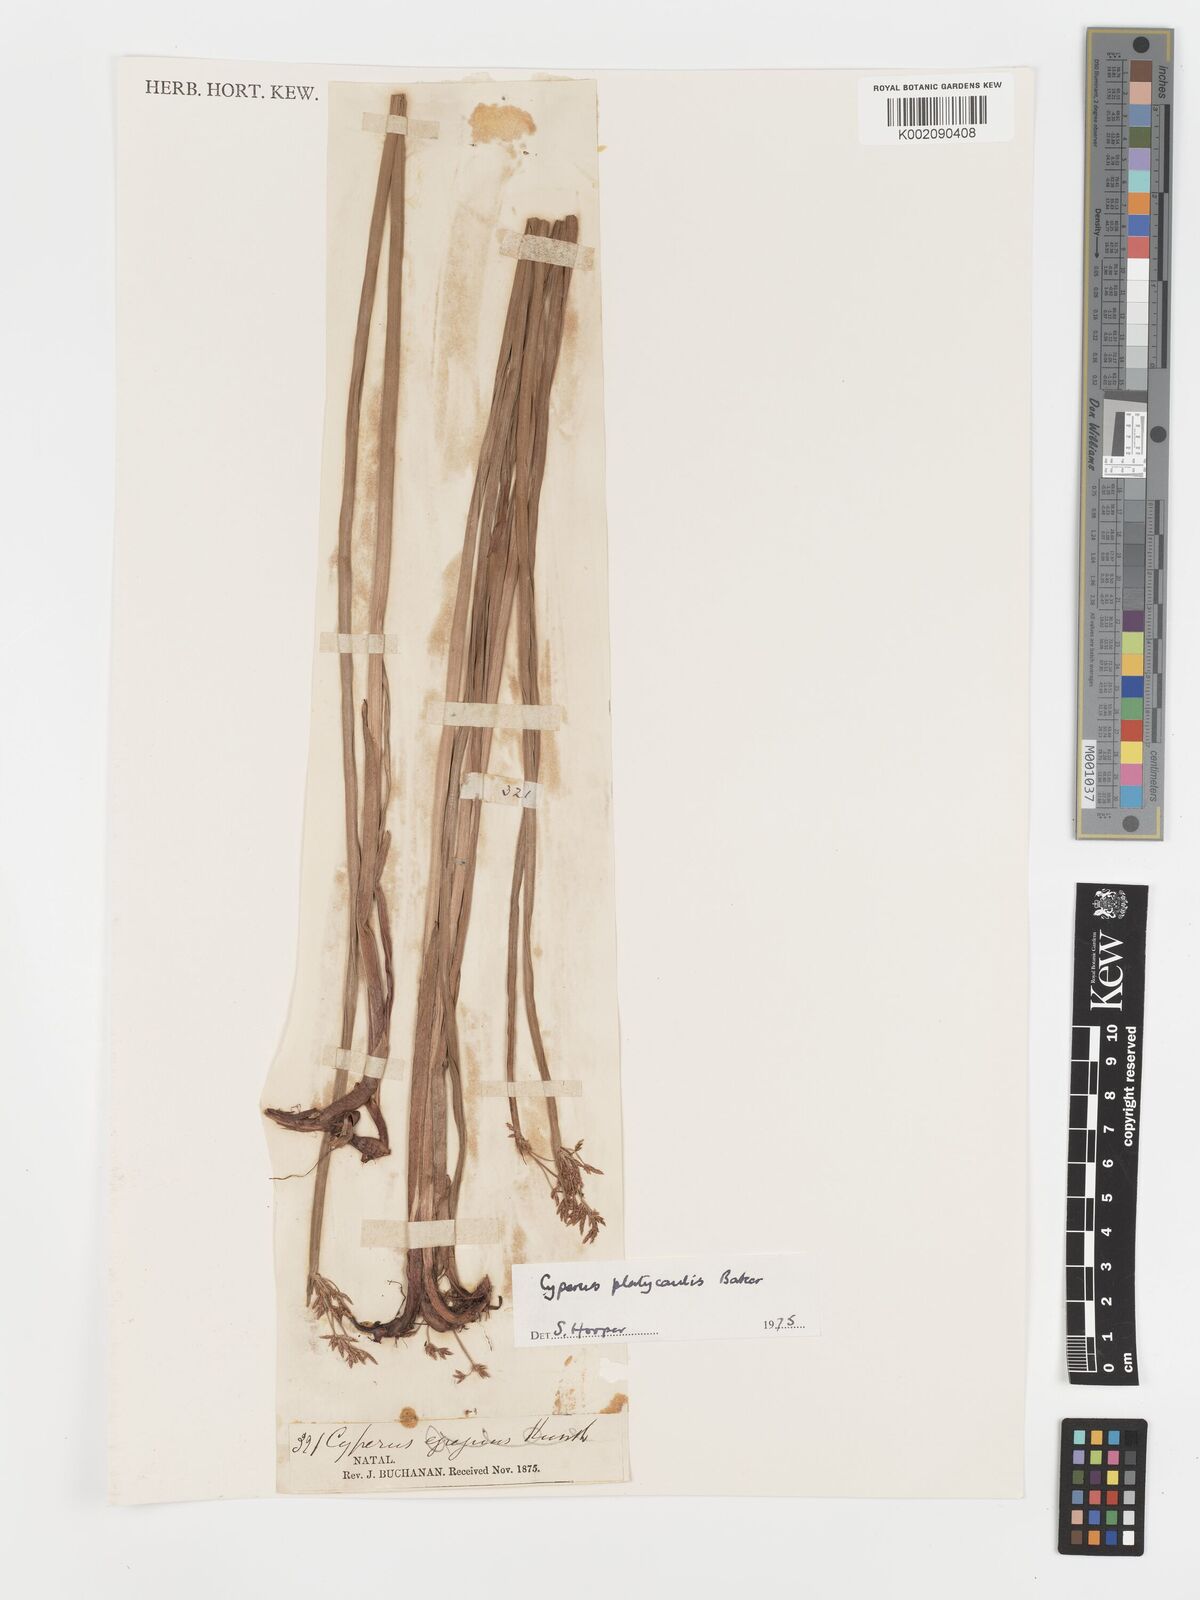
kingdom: Plantae
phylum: Tracheophyta
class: Liliopsida
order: Poales
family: Cyperaceae
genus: Cyperus
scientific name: Cyperus platycaulis
